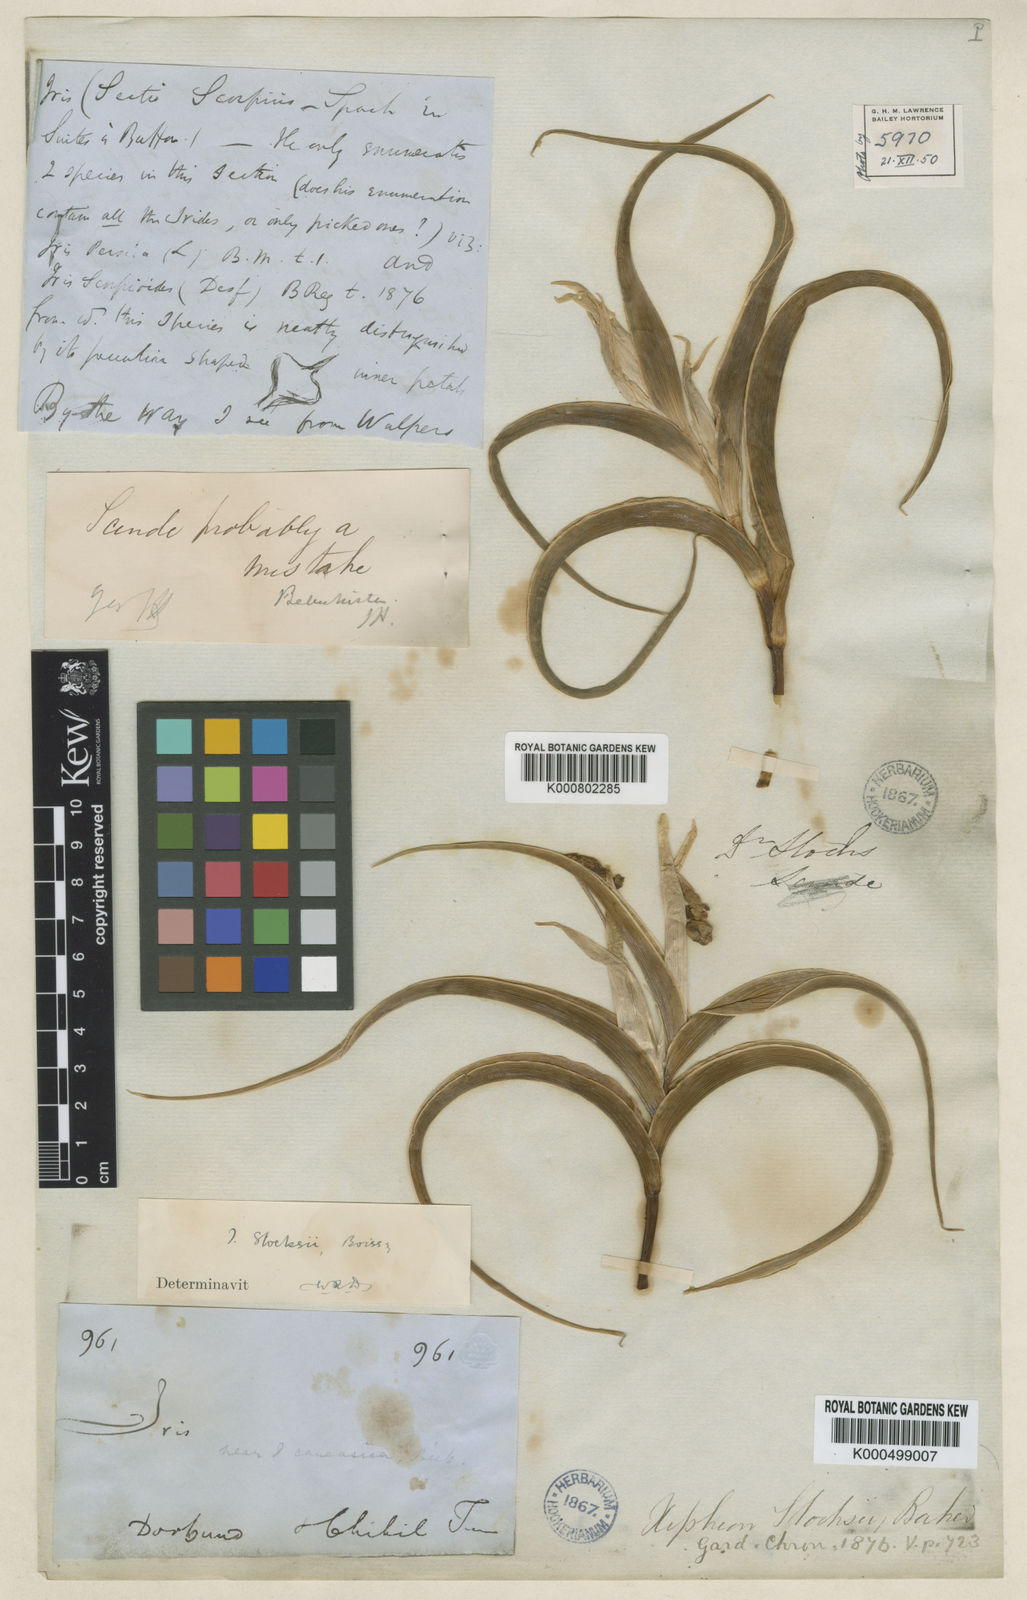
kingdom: Plantae
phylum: Tracheophyta
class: Liliopsida
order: Asparagales
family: Iridaceae
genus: Iris
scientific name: Iris stocksii
